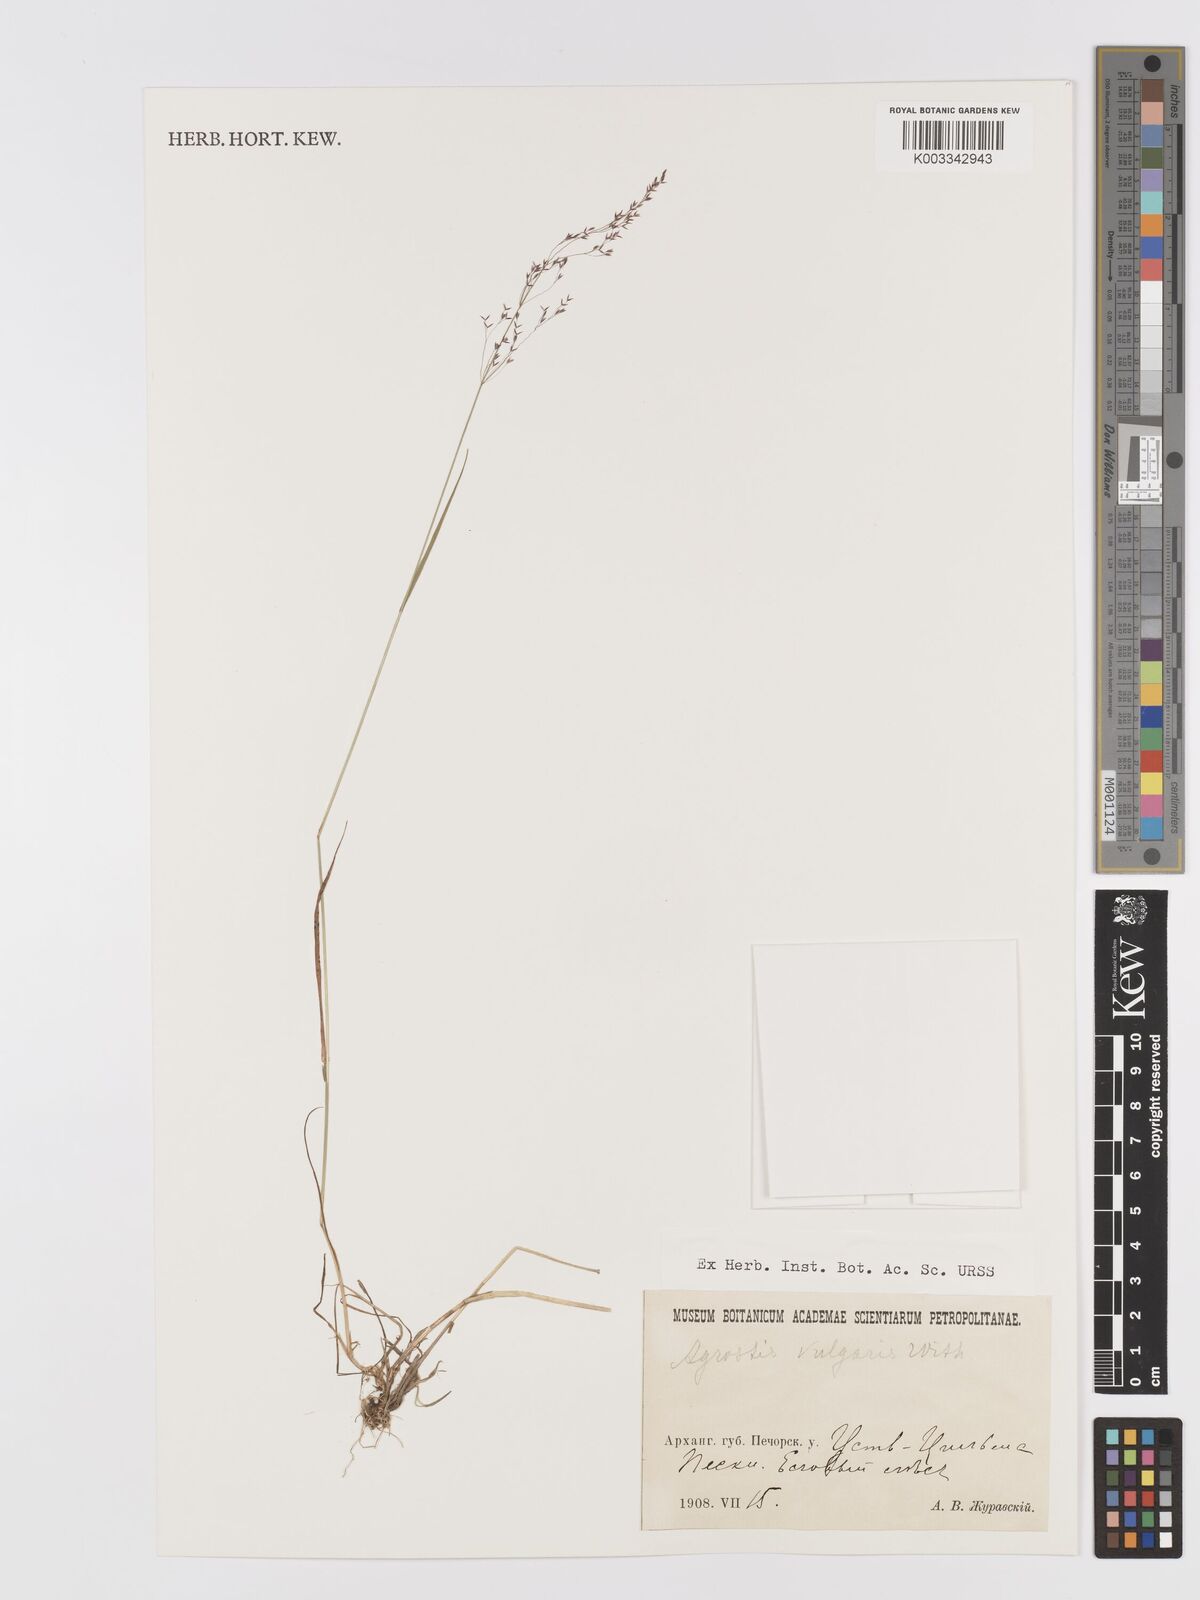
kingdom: Plantae
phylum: Tracheophyta
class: Liliopsida
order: Poales
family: Poaceae
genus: Agrostis
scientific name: Agrostis capillaris
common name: Colonial bentgrass
